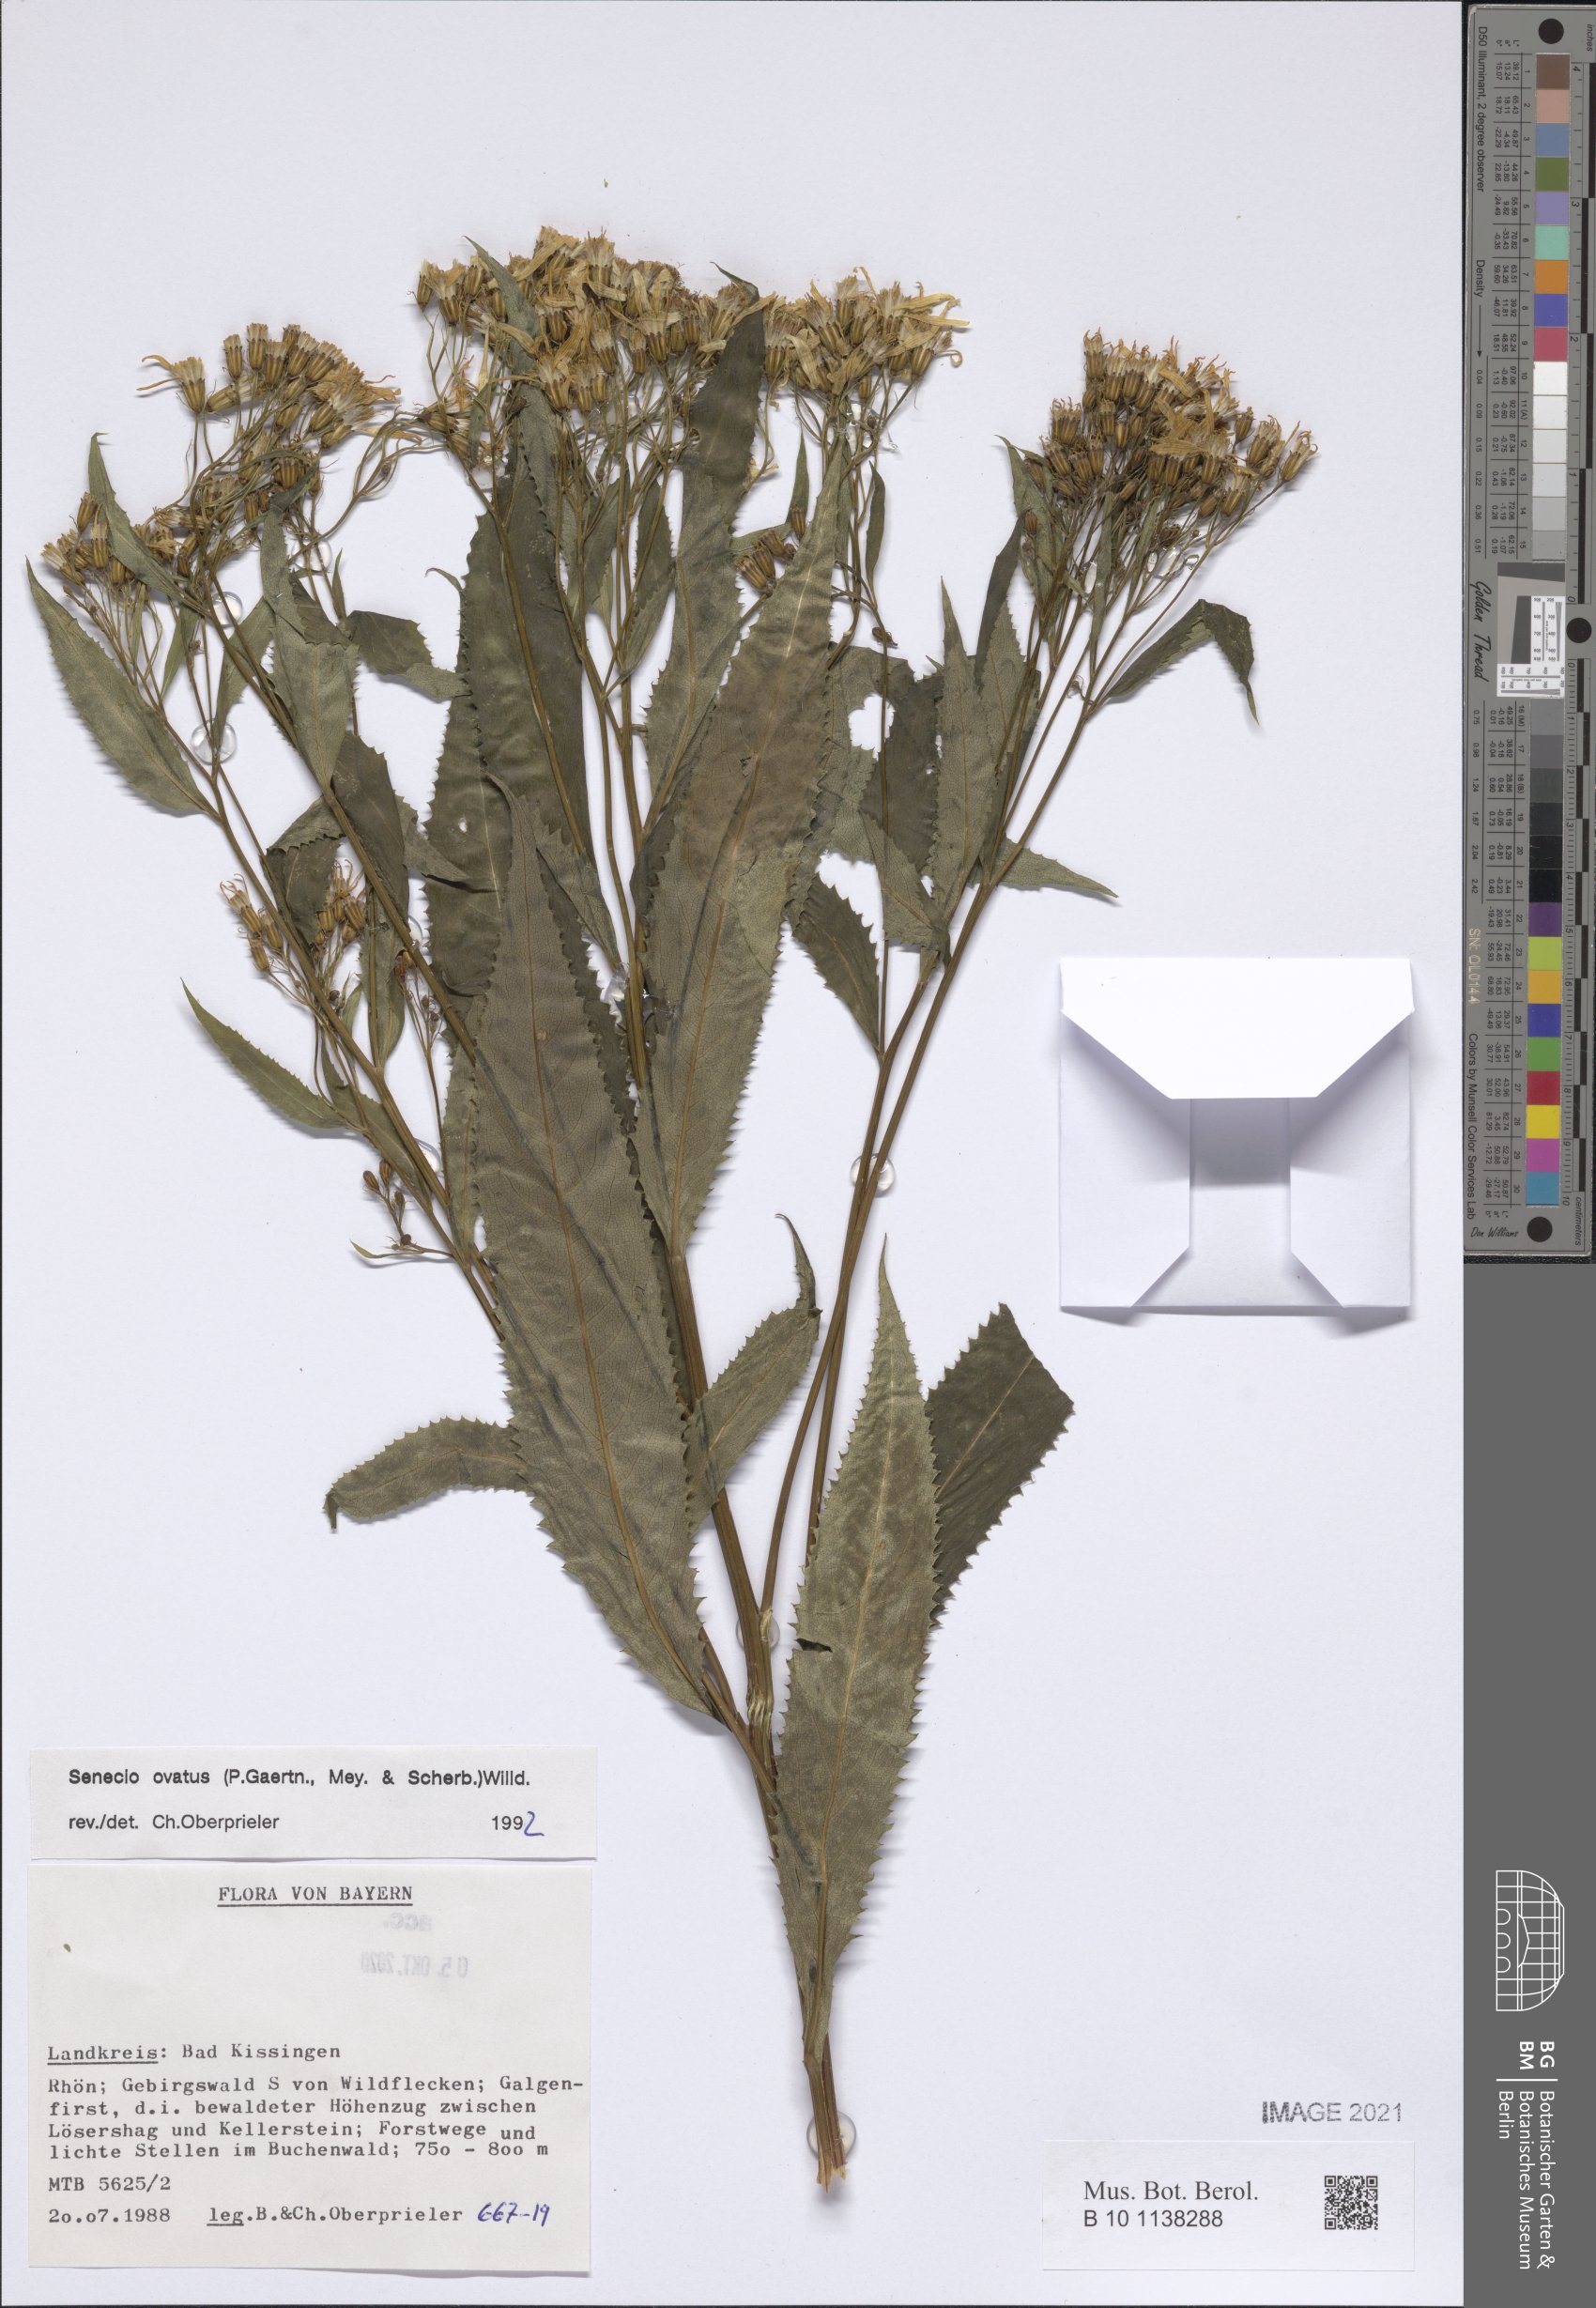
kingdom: Plantae
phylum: Tracheophyta
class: Magnoliopsida
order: Asterales
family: Asteraceae
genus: Senecio
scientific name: Senecio ovatus
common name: Wood ragwort
